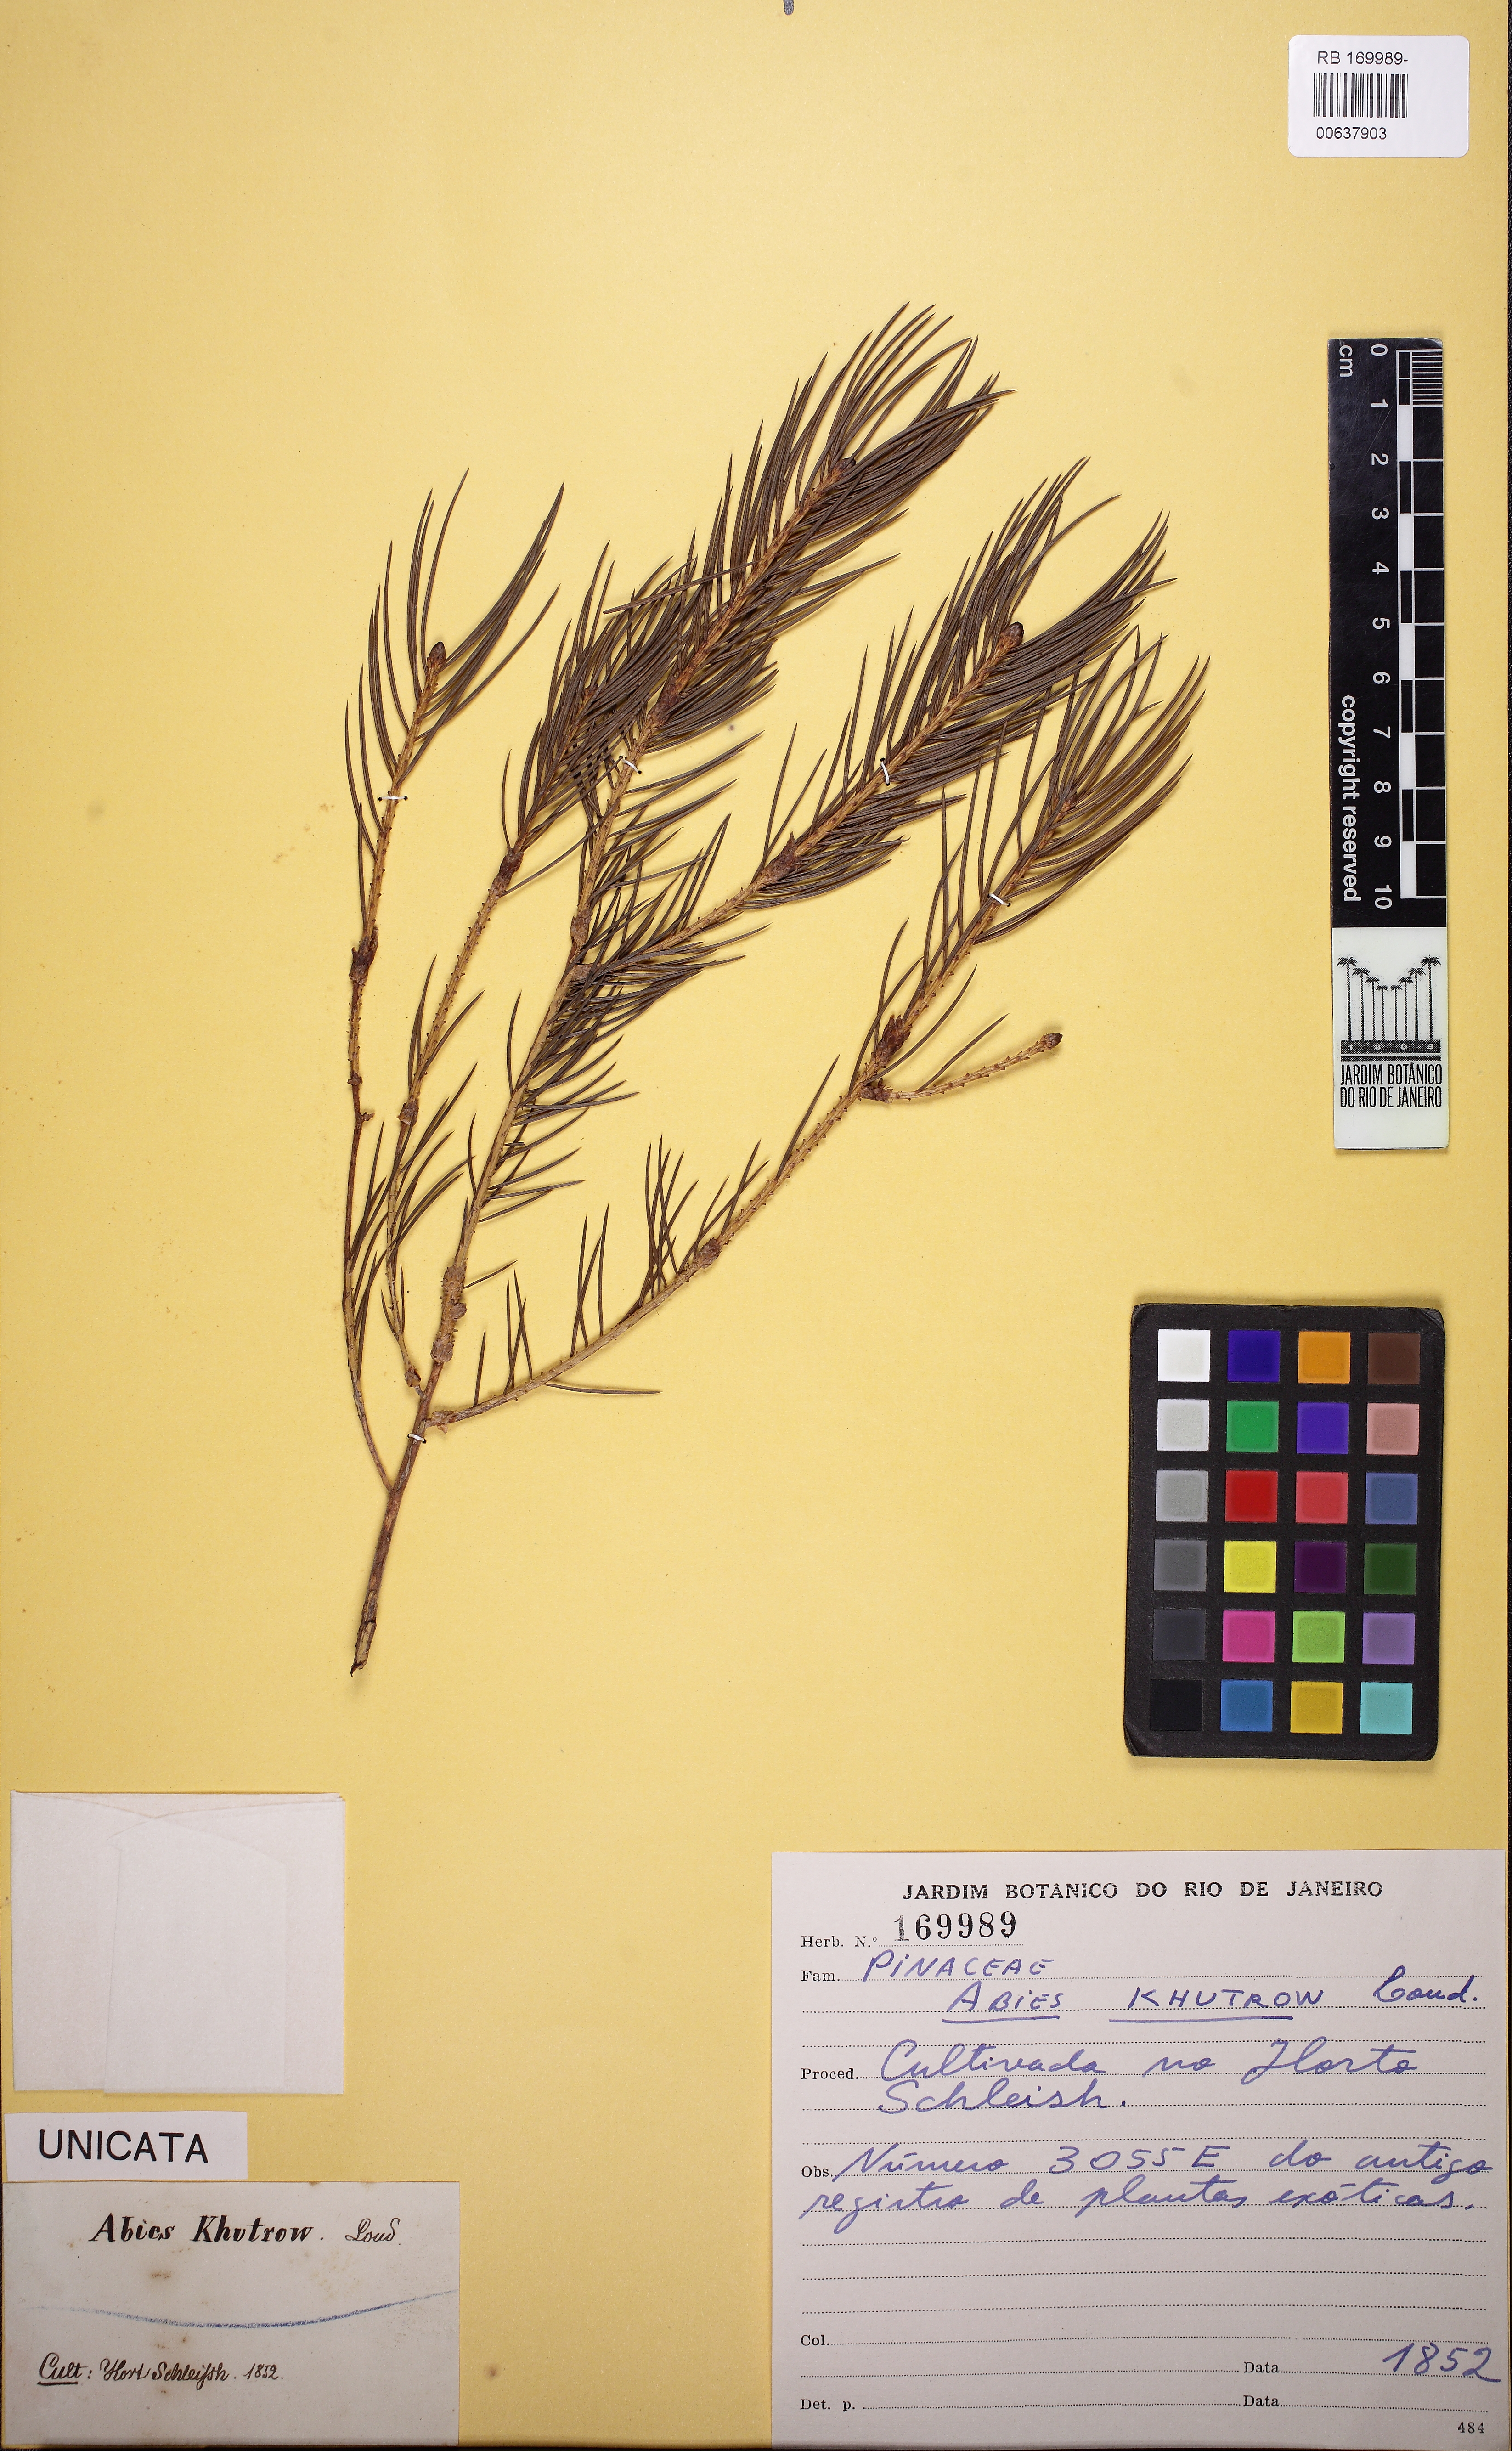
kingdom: Plantae
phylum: Tracheophyta
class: Pinopsida
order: Pinales
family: Pinaceae
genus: Picea
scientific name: Picea smithiana
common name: Morinda spruce
